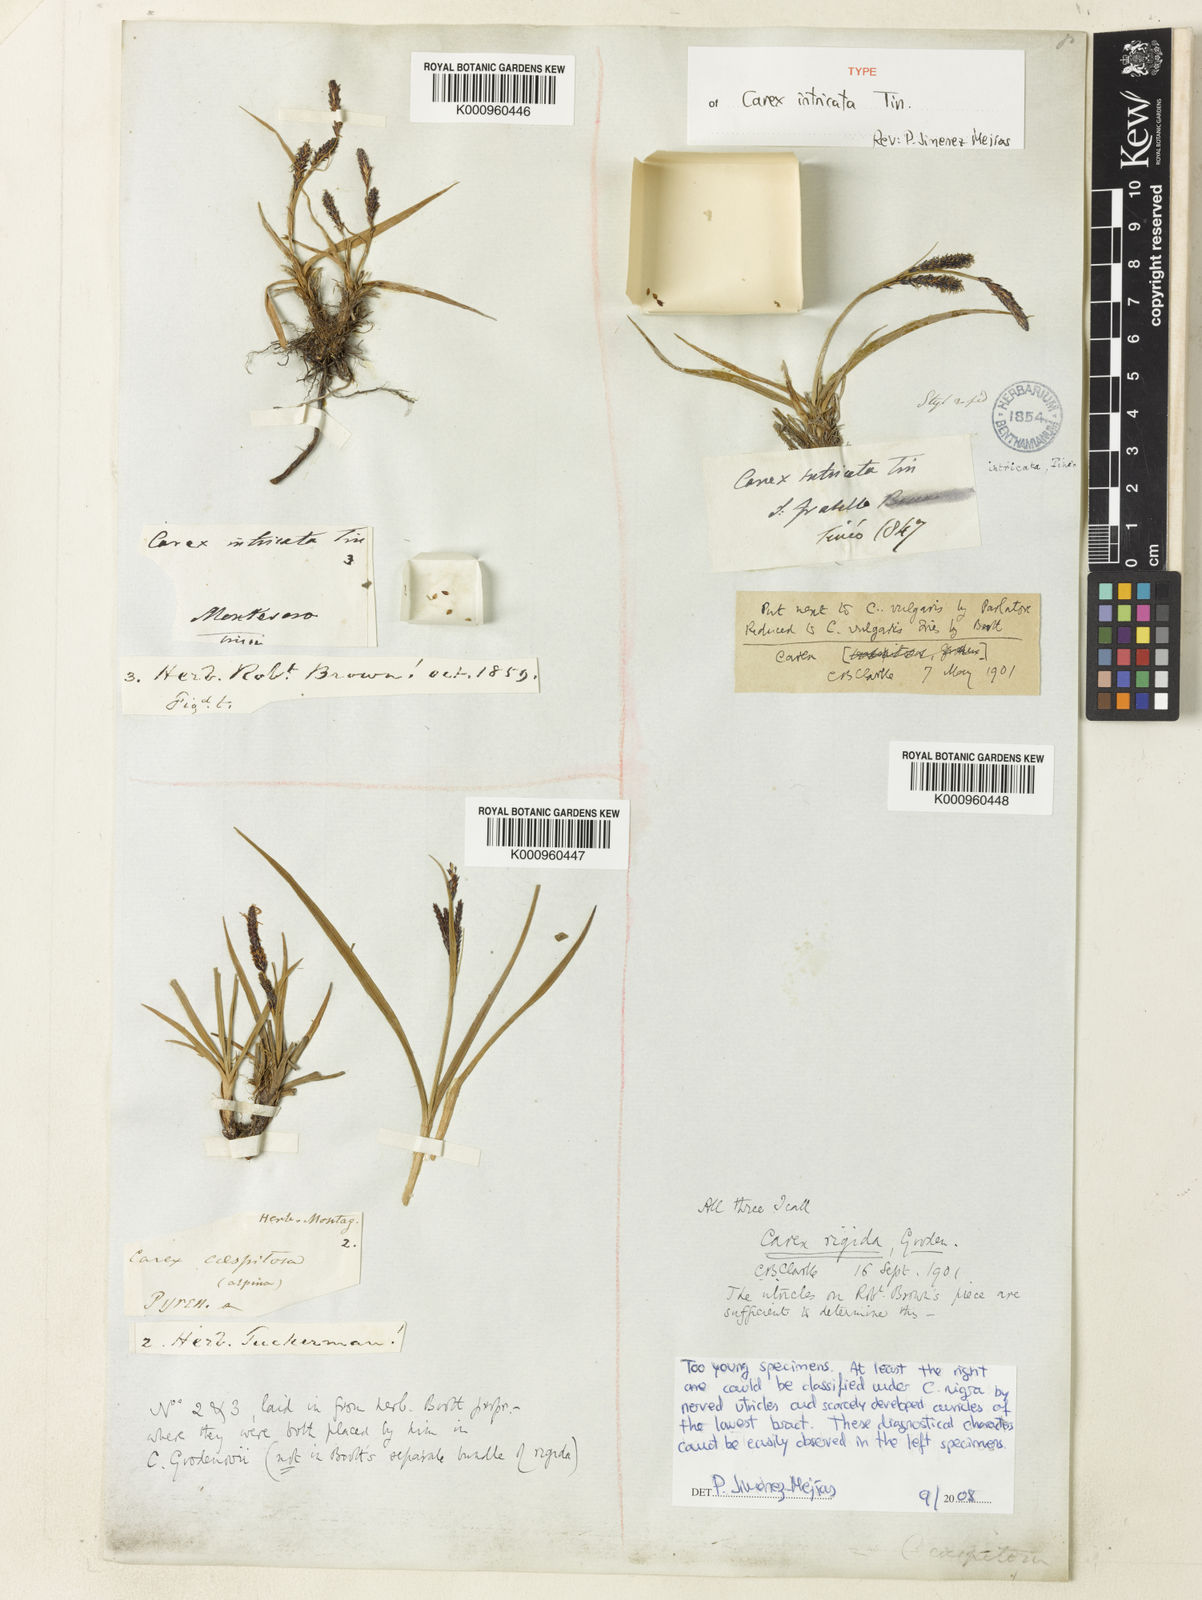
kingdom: Plantae
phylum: Tracheophyta
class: Liliopsida
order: Poales
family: Cyperaceae
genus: Carex
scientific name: Carex nigra
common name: Common sedge
